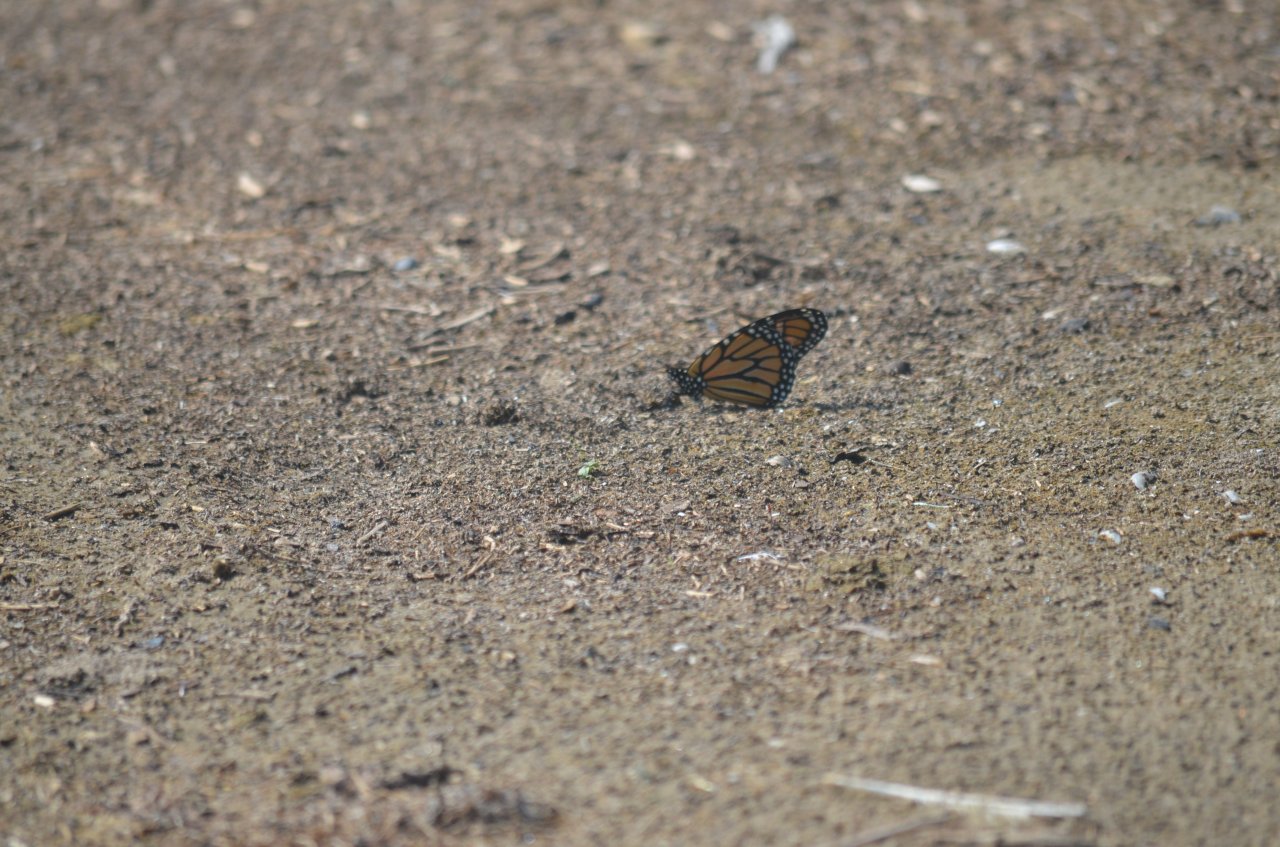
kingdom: Animalia
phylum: Arthropoda
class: Insecta
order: Lepidoptera
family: Nymphalidae
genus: Danaus
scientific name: Danaus plexippus
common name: Monarch
